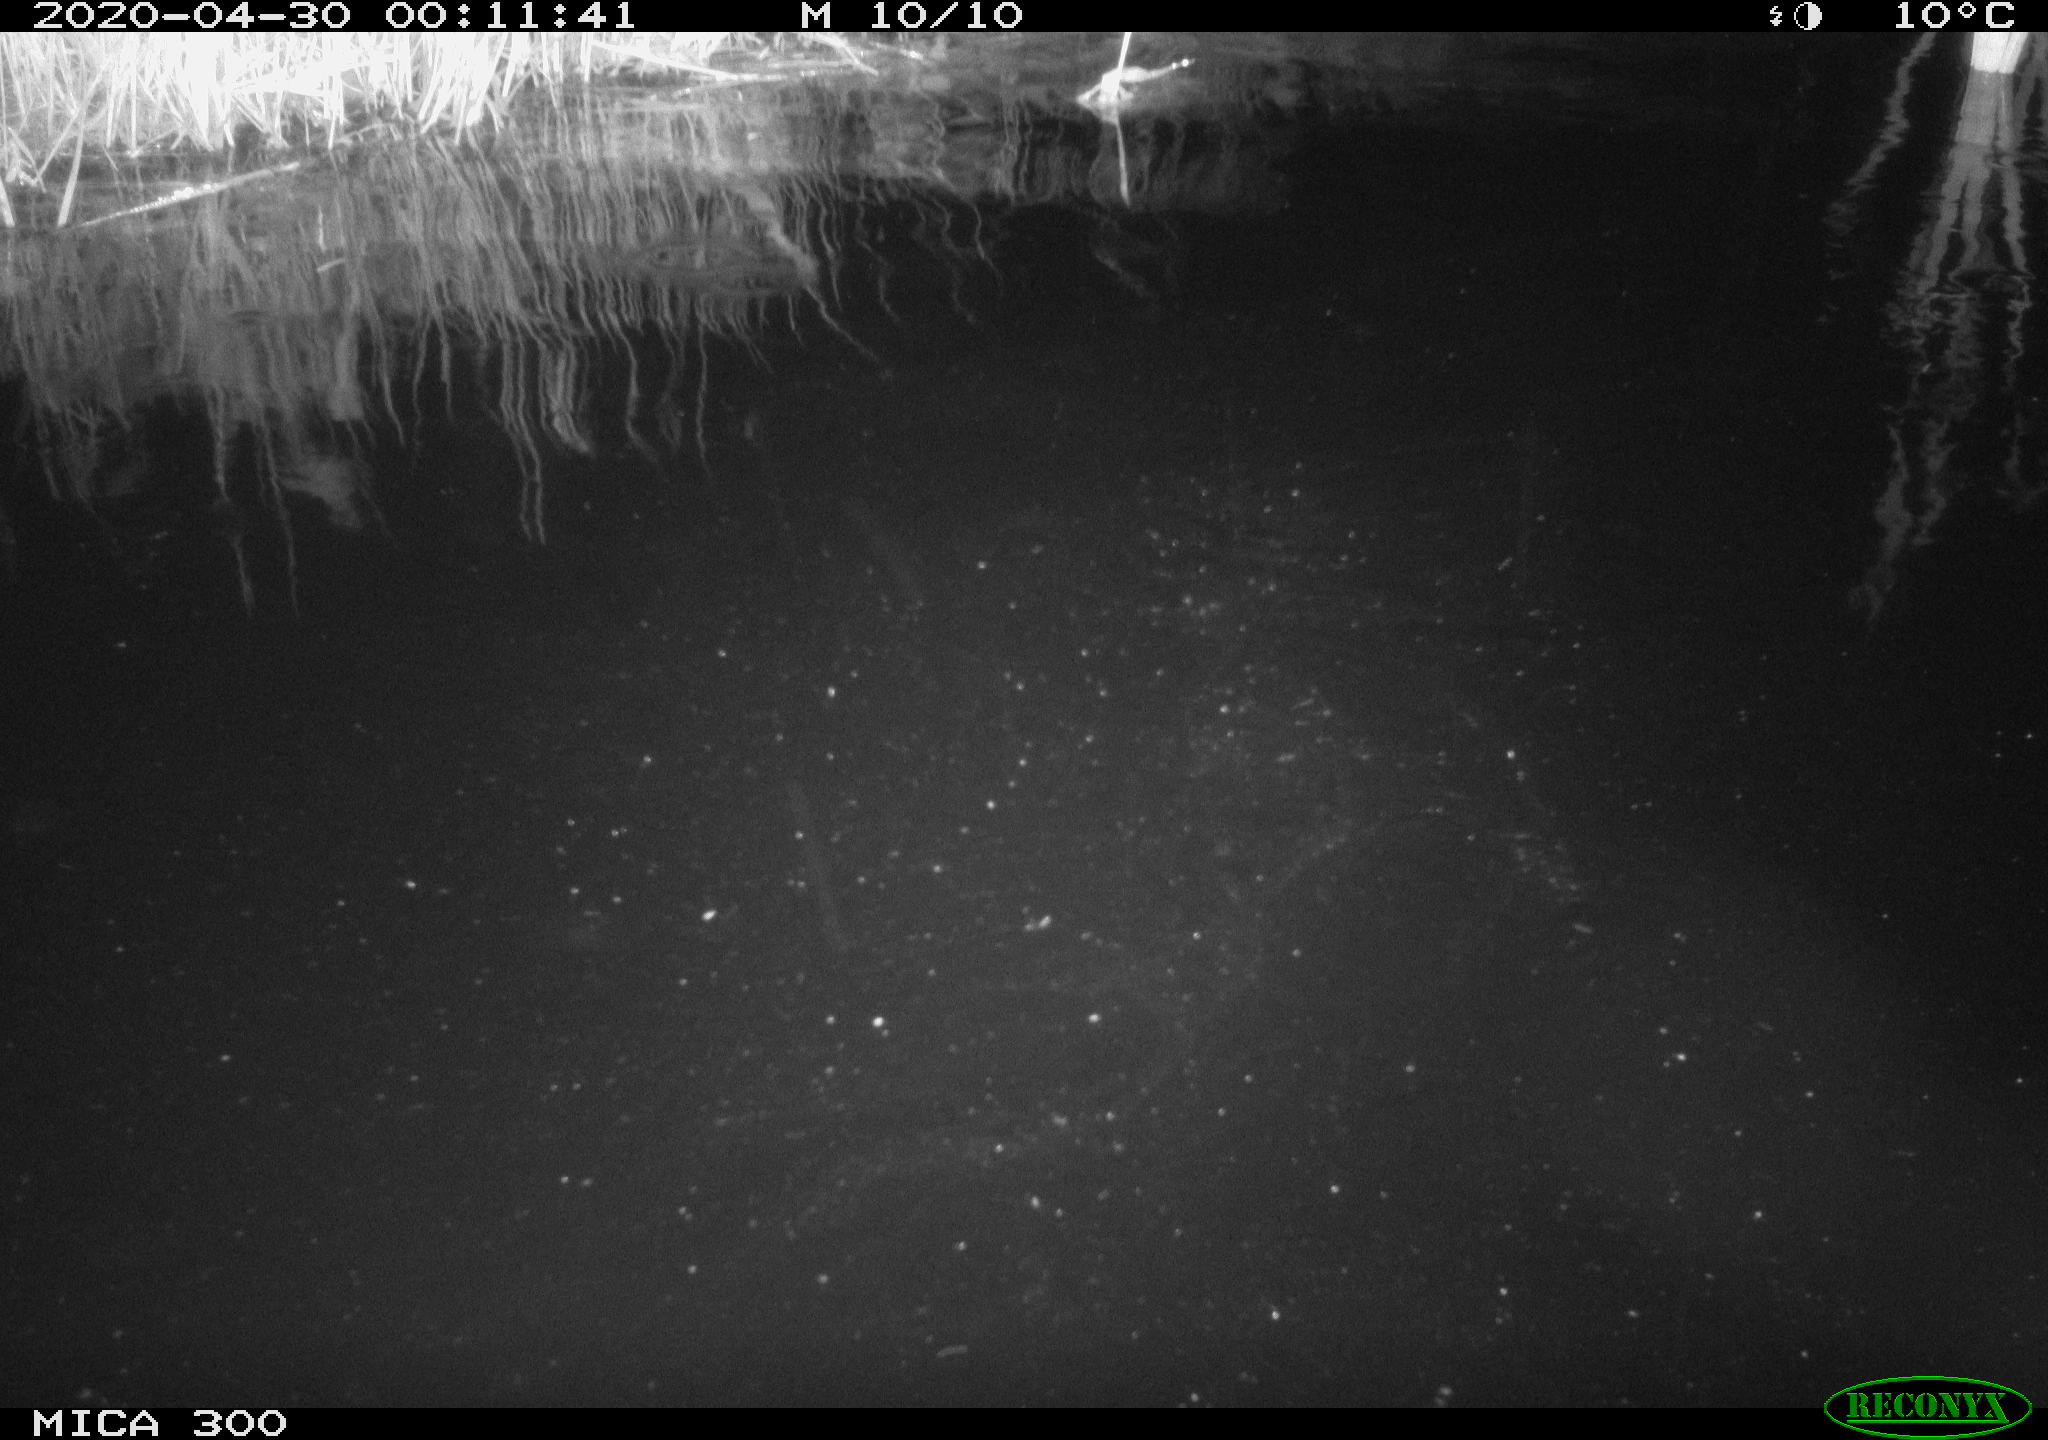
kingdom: Animalia
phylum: Chordata
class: Mammalia
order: Rodentia
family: Castoridae
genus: Castor
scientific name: Castor fiber
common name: Eurasian beaver
